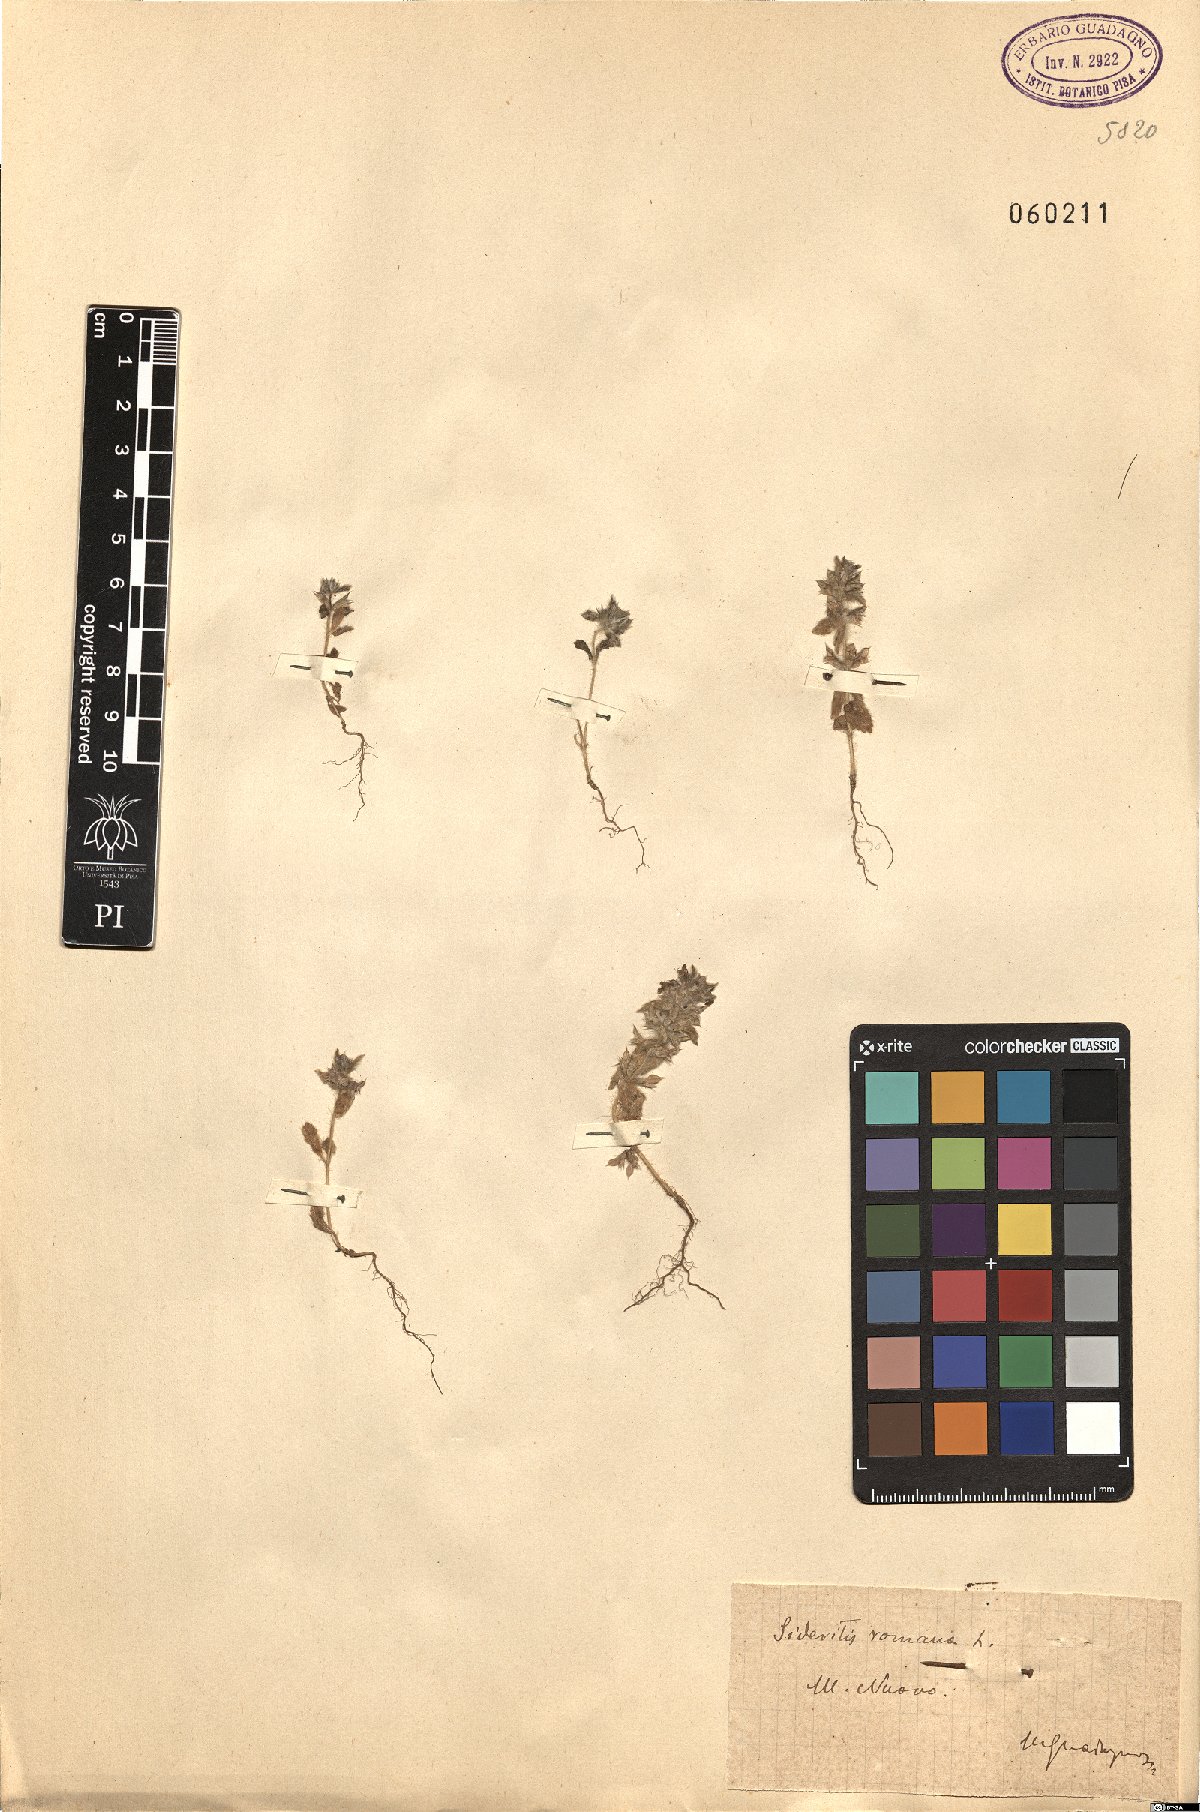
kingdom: Plantae
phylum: Tracheophyta
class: Magnoliopsida
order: Lamiales
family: Lamiaceae
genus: Sideritis
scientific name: Sideritis romana
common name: Simplebeak ironwort
